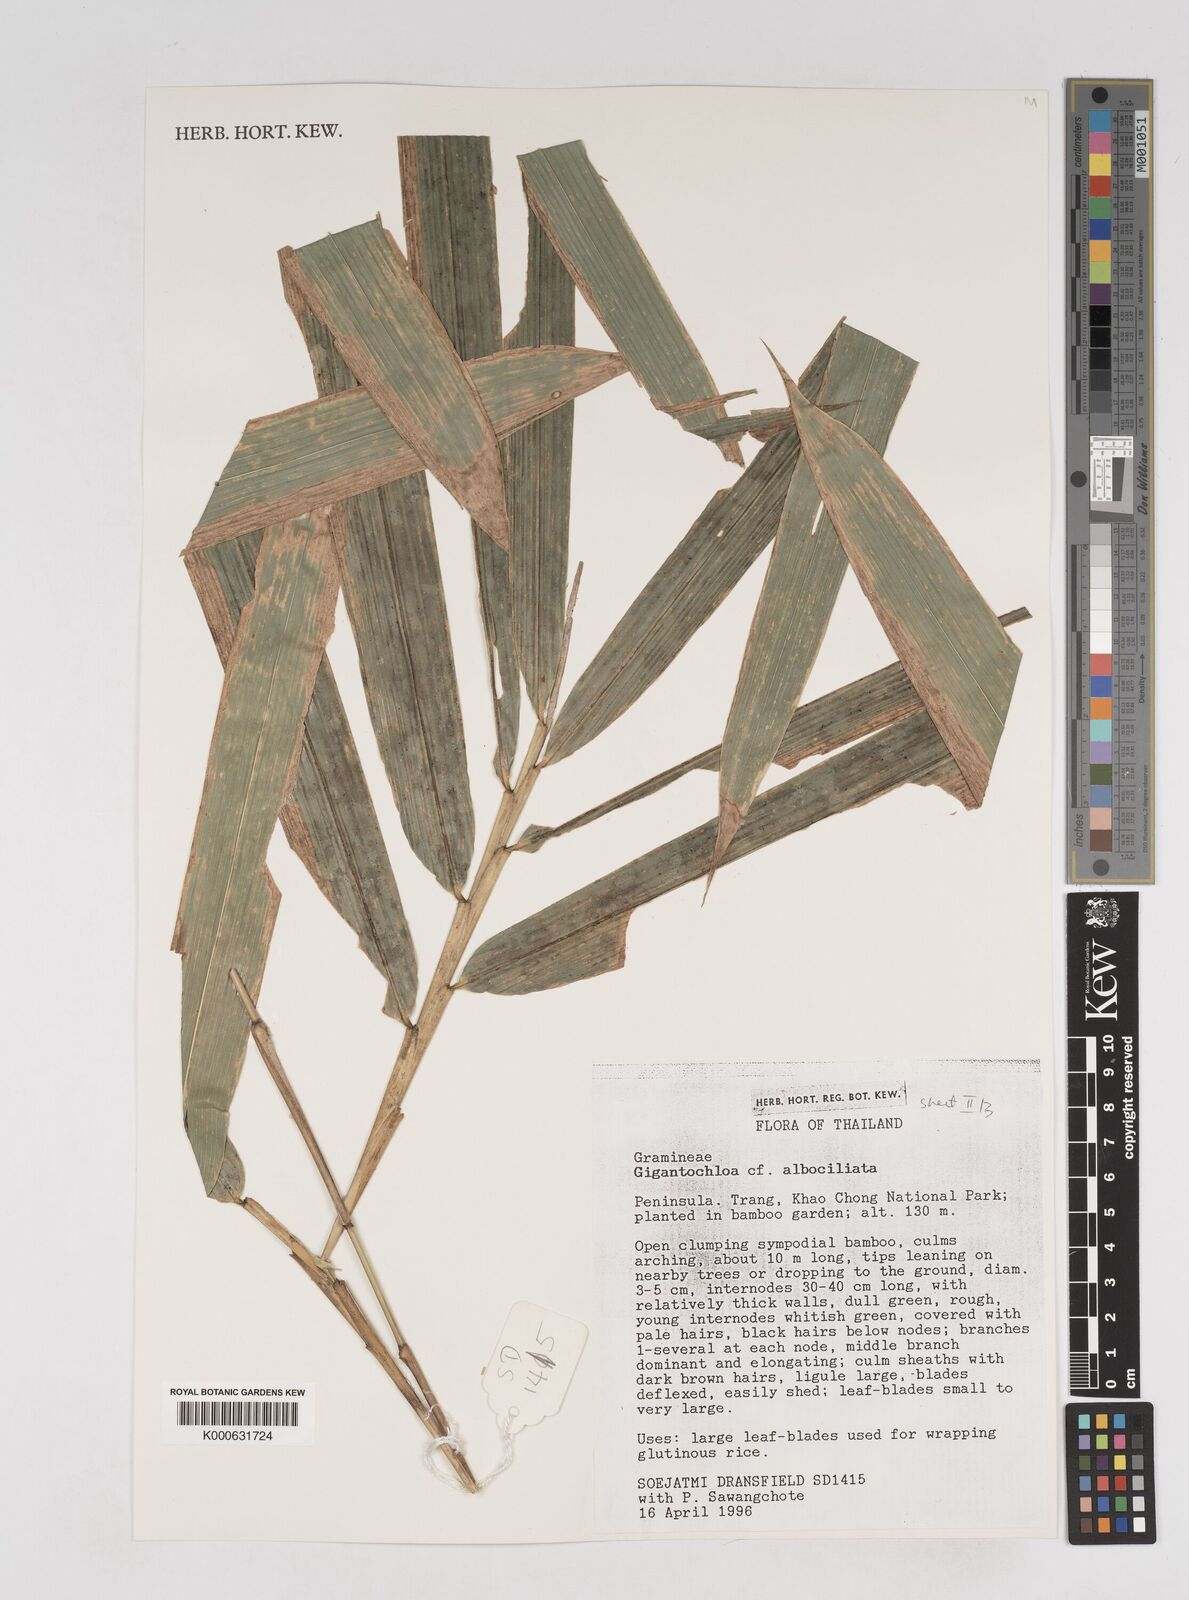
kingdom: Plantae
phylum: Tracheophyta
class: Liliopsida
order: Poales
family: Poaceae
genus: Gigantochloa
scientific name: Gigantochloa albociliata
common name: White-fringe gigantochloa
